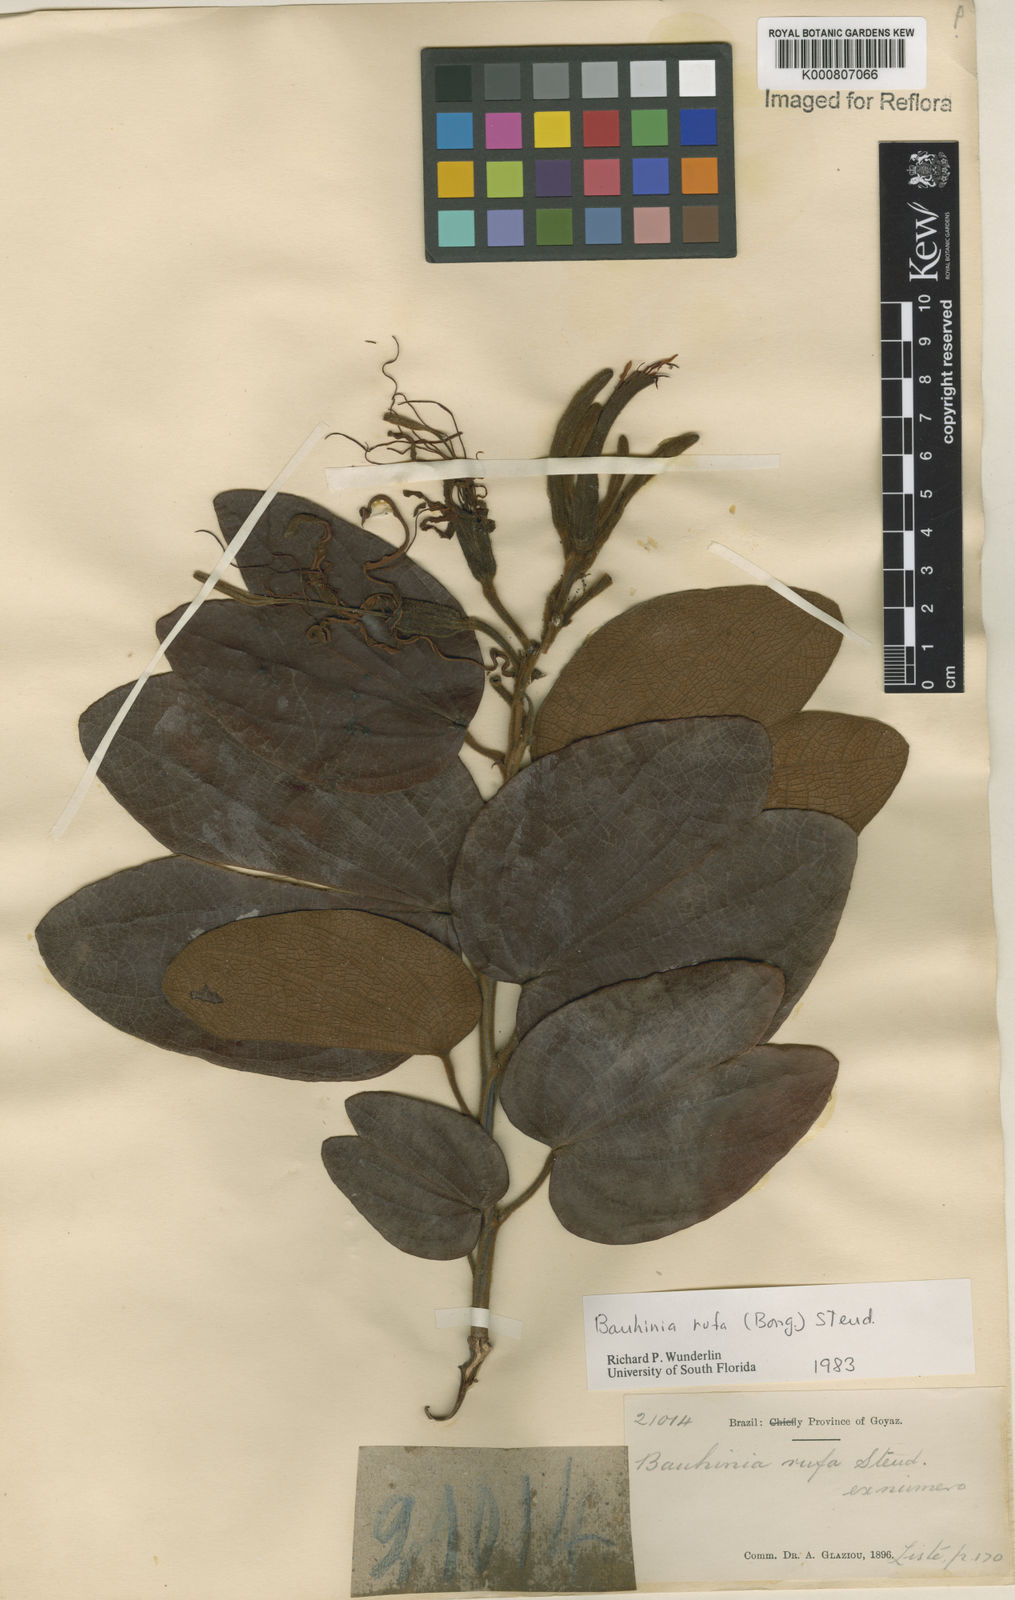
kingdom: Plantae
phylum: Tracheophyta
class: Magnoliopsida
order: Fabales
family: Fabaceae
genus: Bauhinia
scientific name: Bauhinia rufa
